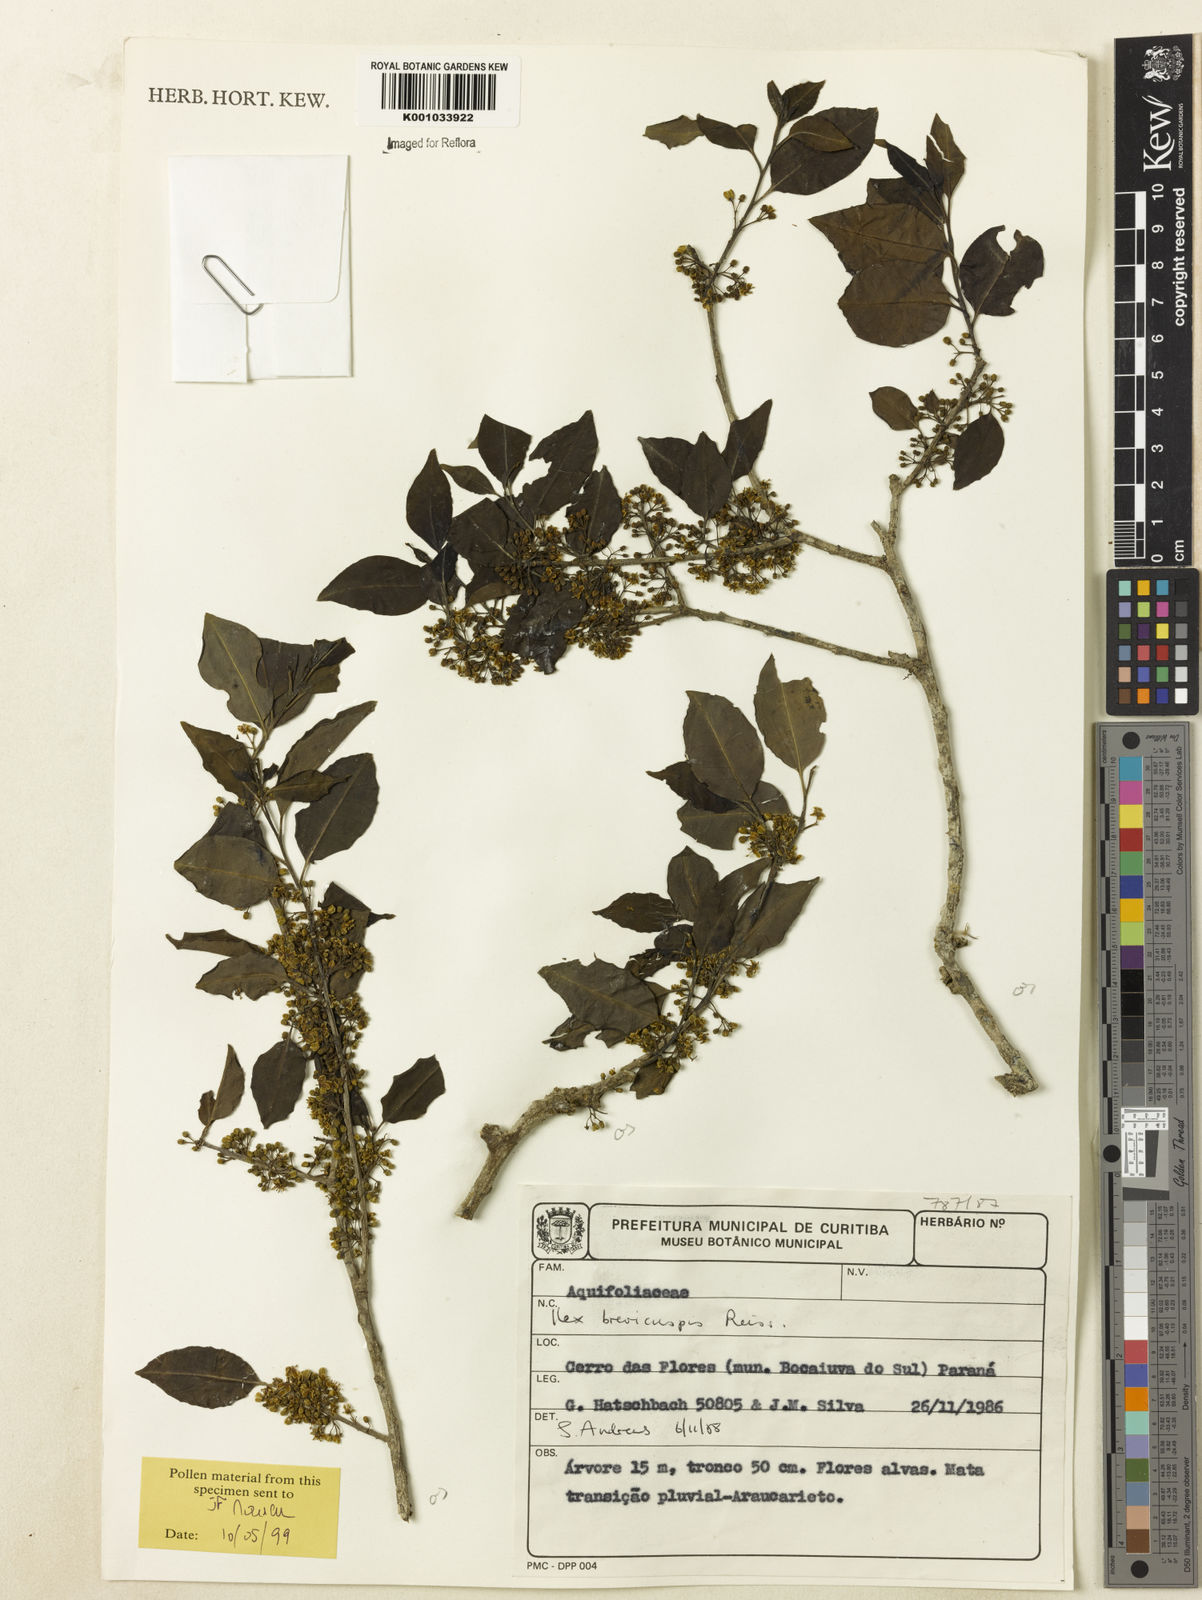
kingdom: Plantae
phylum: Tracheophyta
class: Magnoliopsida
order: Aquifoliales
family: Aquifoliaceae
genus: Ilex
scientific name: Ilex brevicuspis
